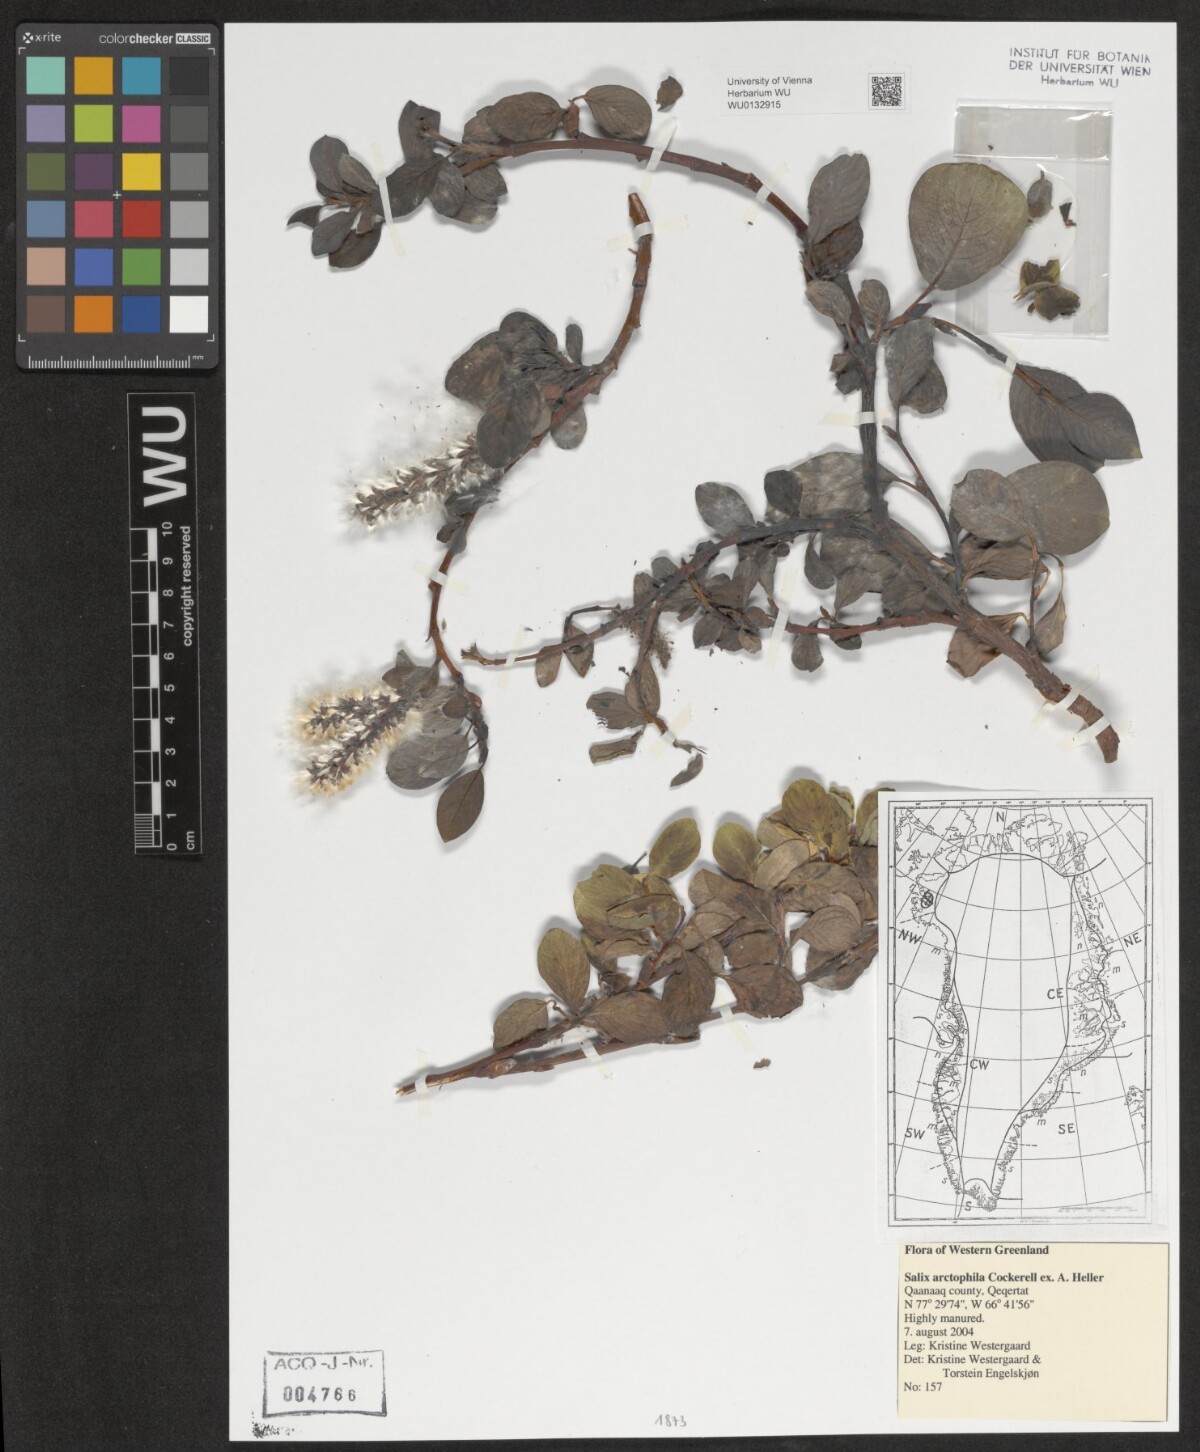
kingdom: Plantae
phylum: Tracheophyta
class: Magnoliopsida
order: Malpighiales
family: Salicaceae
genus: Salix
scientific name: Salix arctophila
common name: Greenland willow
